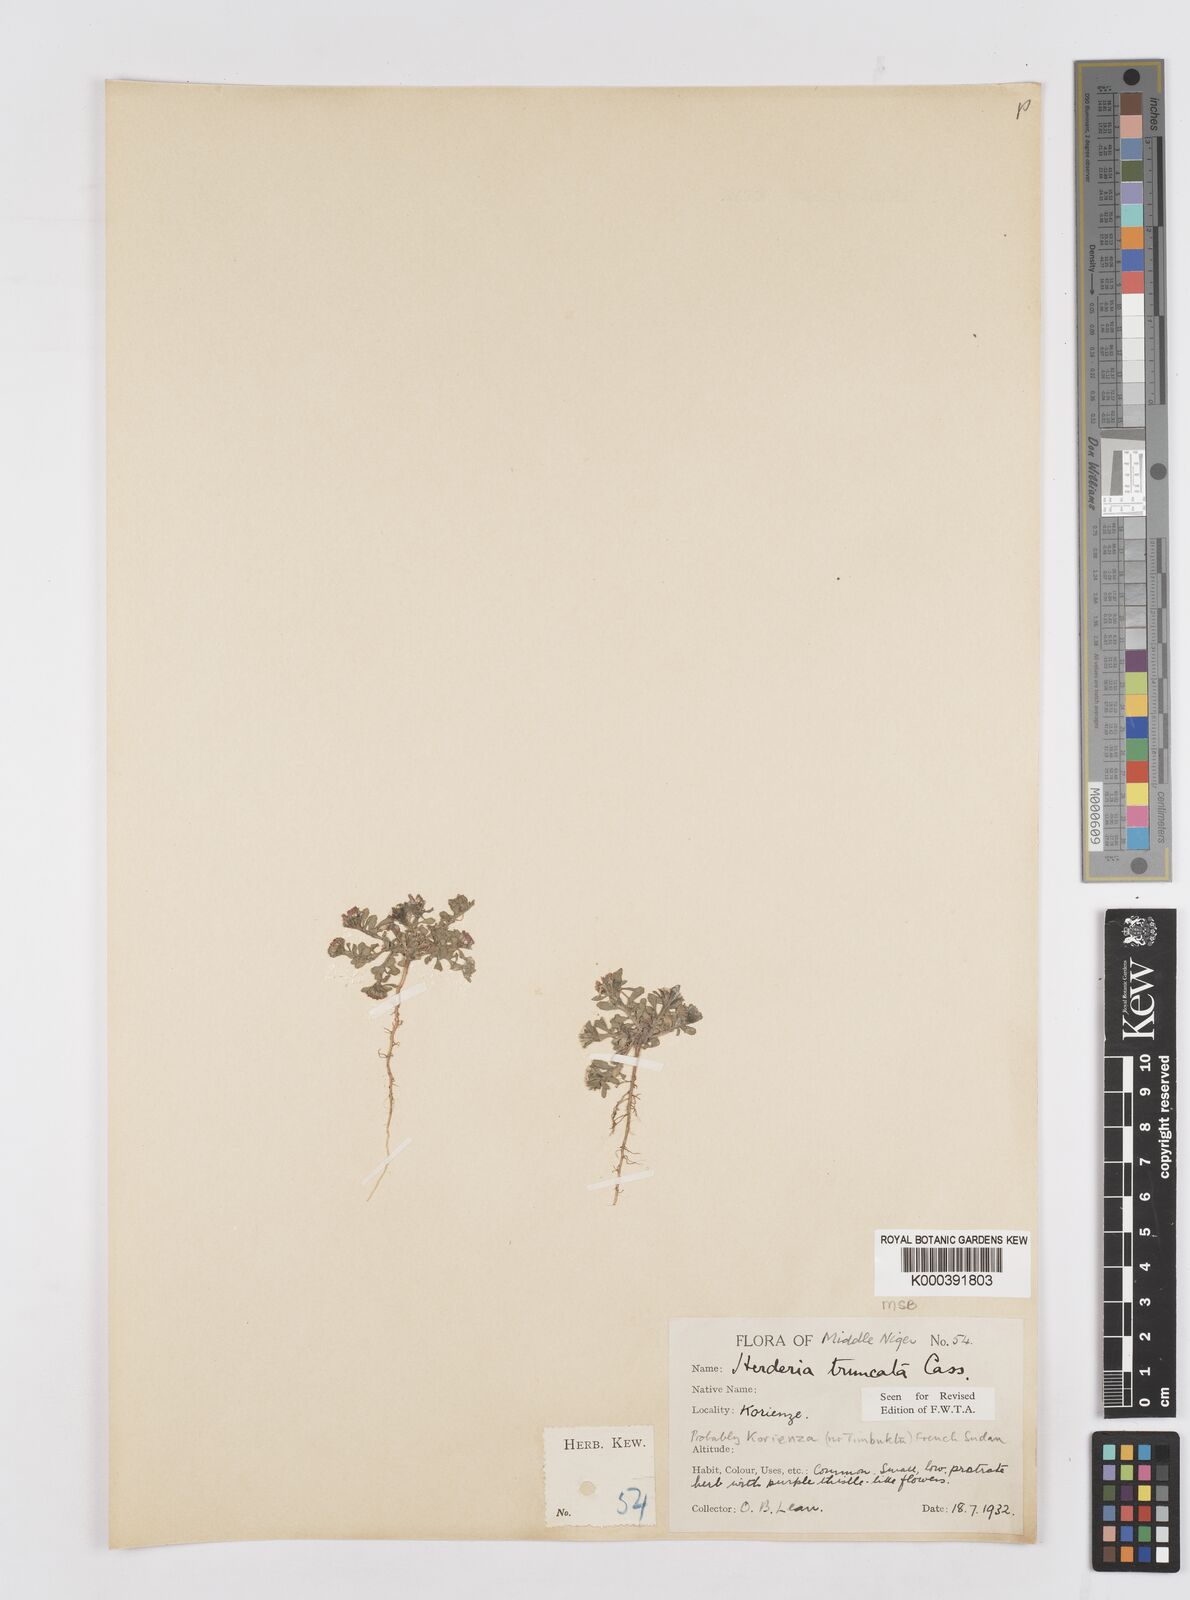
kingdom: Plantae
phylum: Tracheophyta
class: Magnoliopsida
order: Asterales
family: Asteraceae
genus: Herderia
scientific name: Herderia truncata
